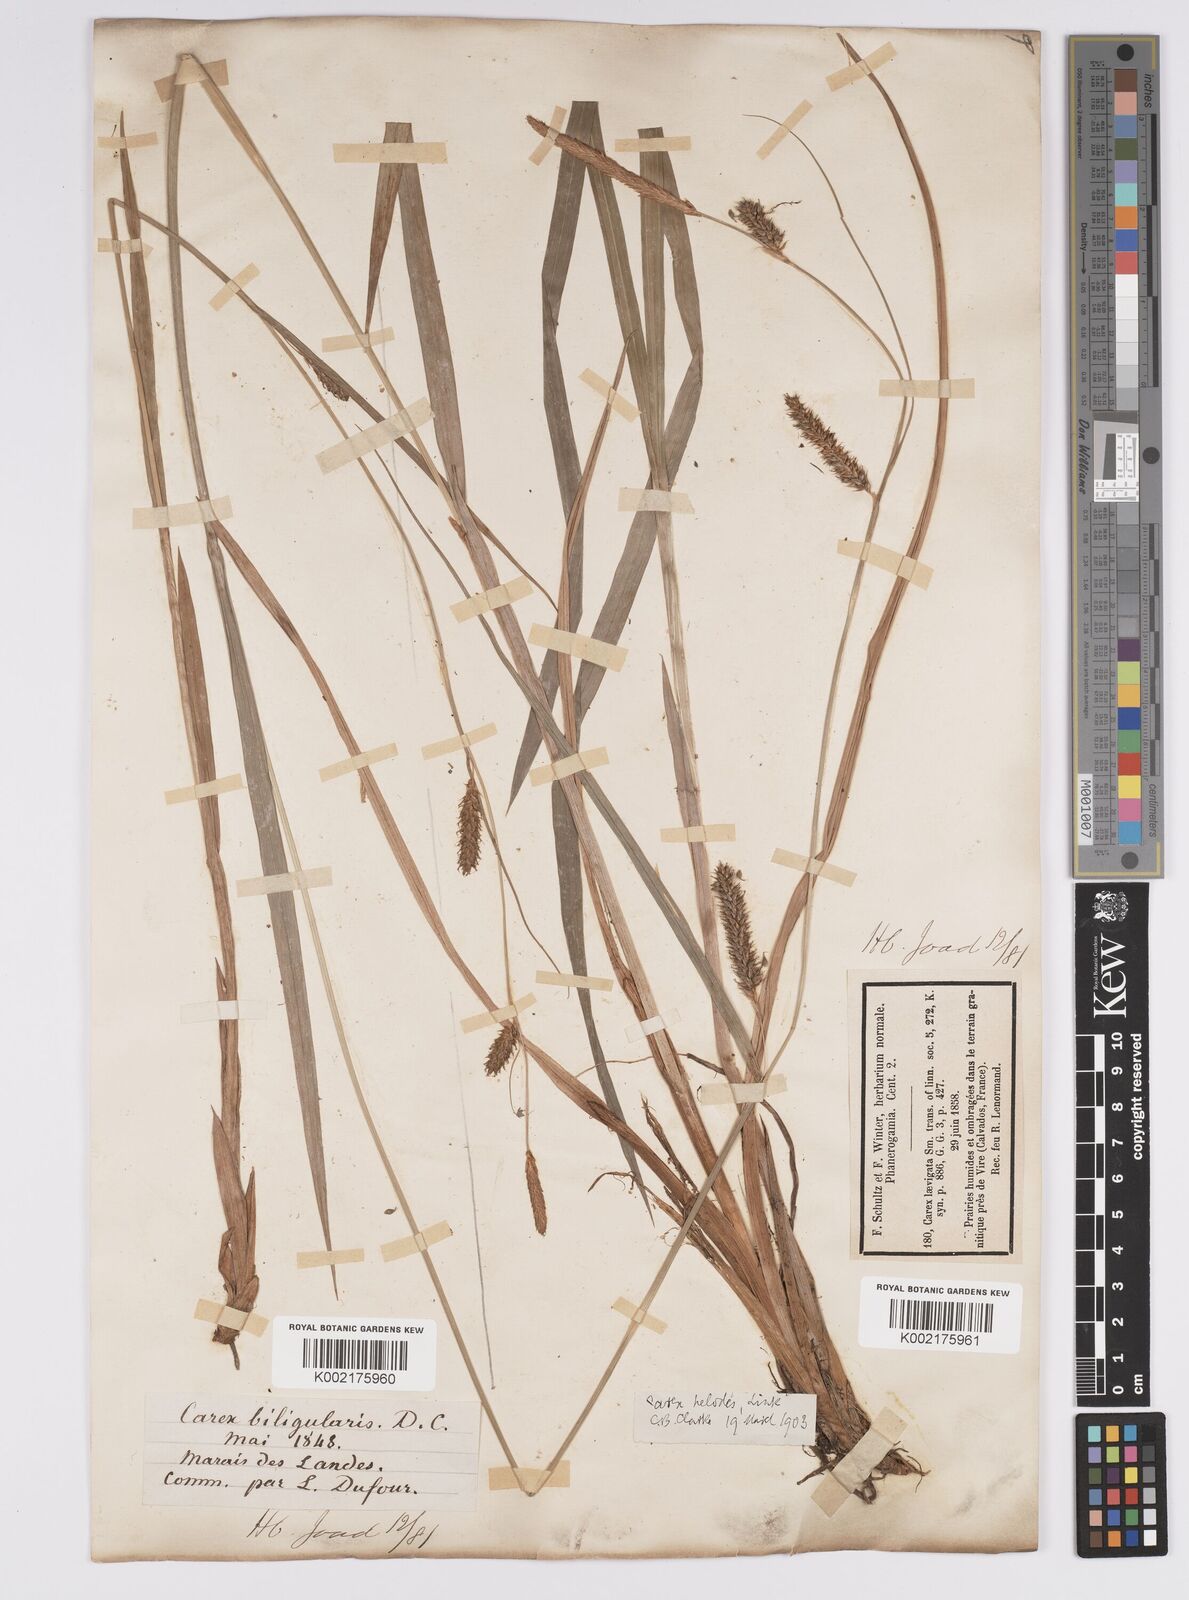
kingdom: Plantae
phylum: Tracheophyta
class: Liliopsida
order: Poales
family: Cyperaceae
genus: Carex
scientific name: Carex laevigata
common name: Smooth-stalked sedge
